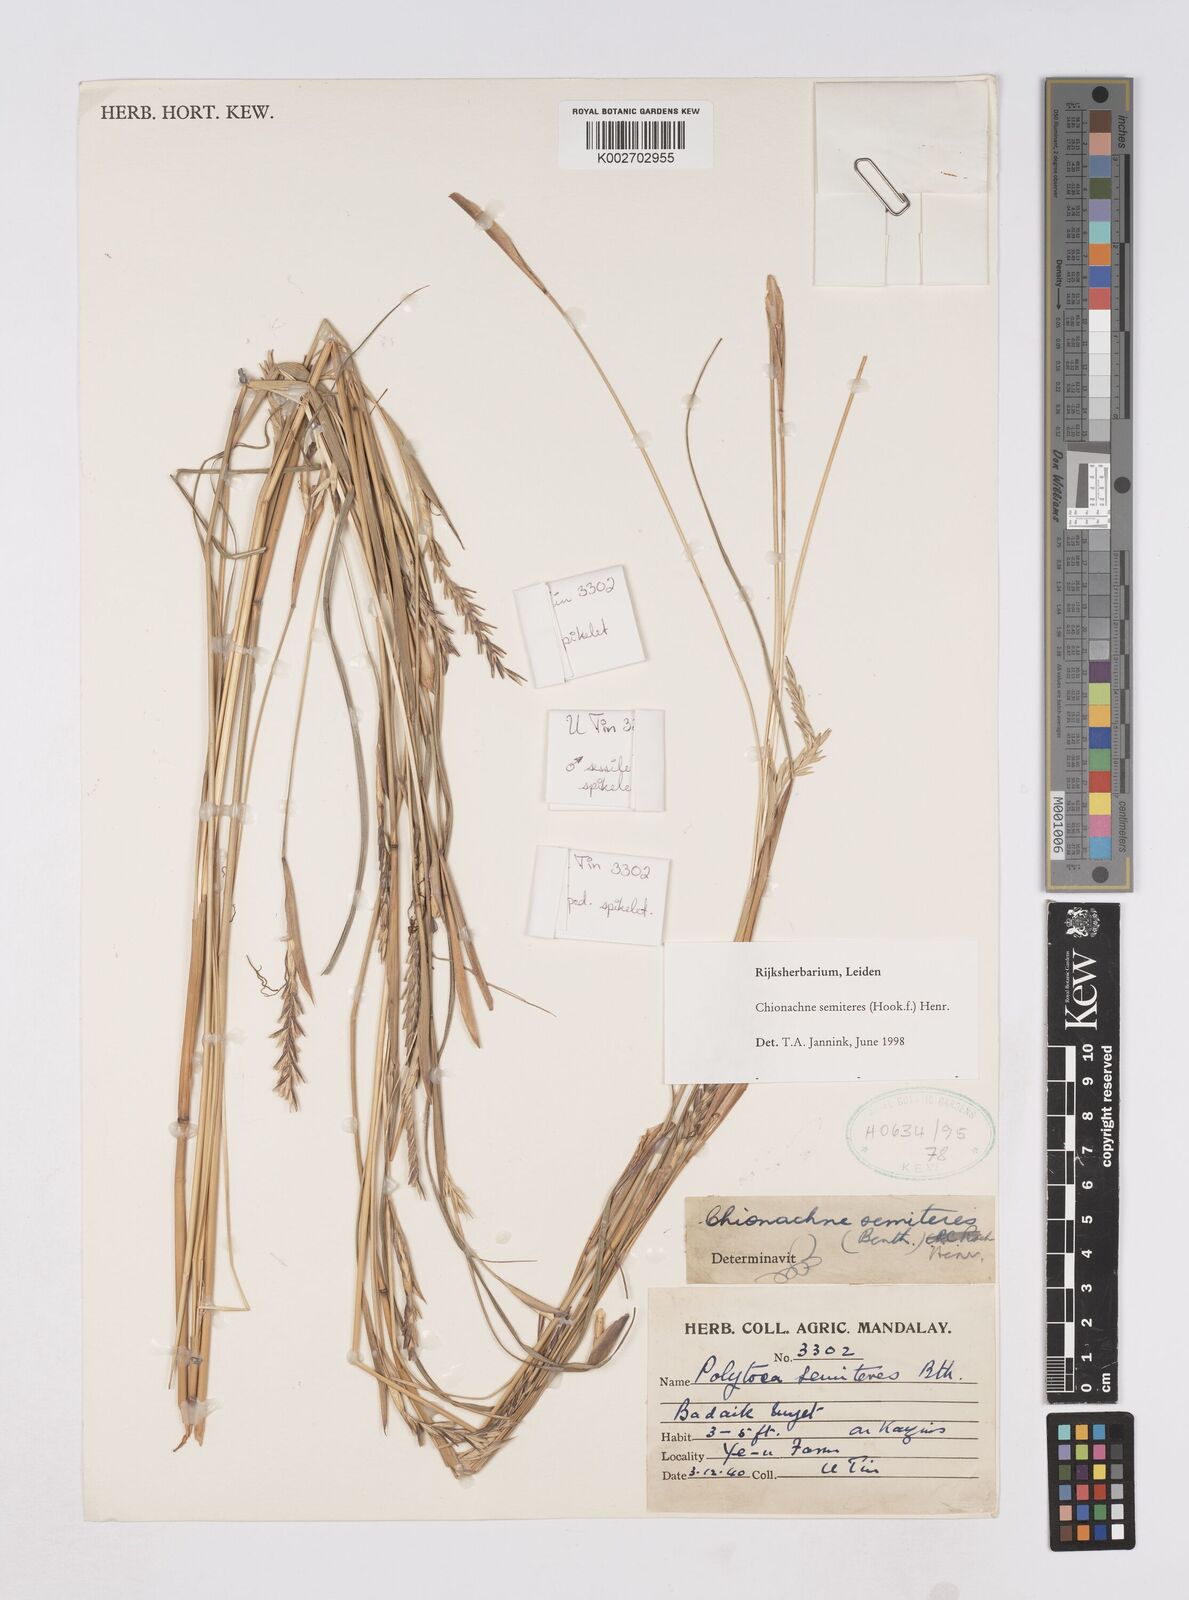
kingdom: Plantae
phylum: Tracheophyta
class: Liliopsida
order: Poales
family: Poaceae
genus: Polytoca
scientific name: Polytoca semiteres
